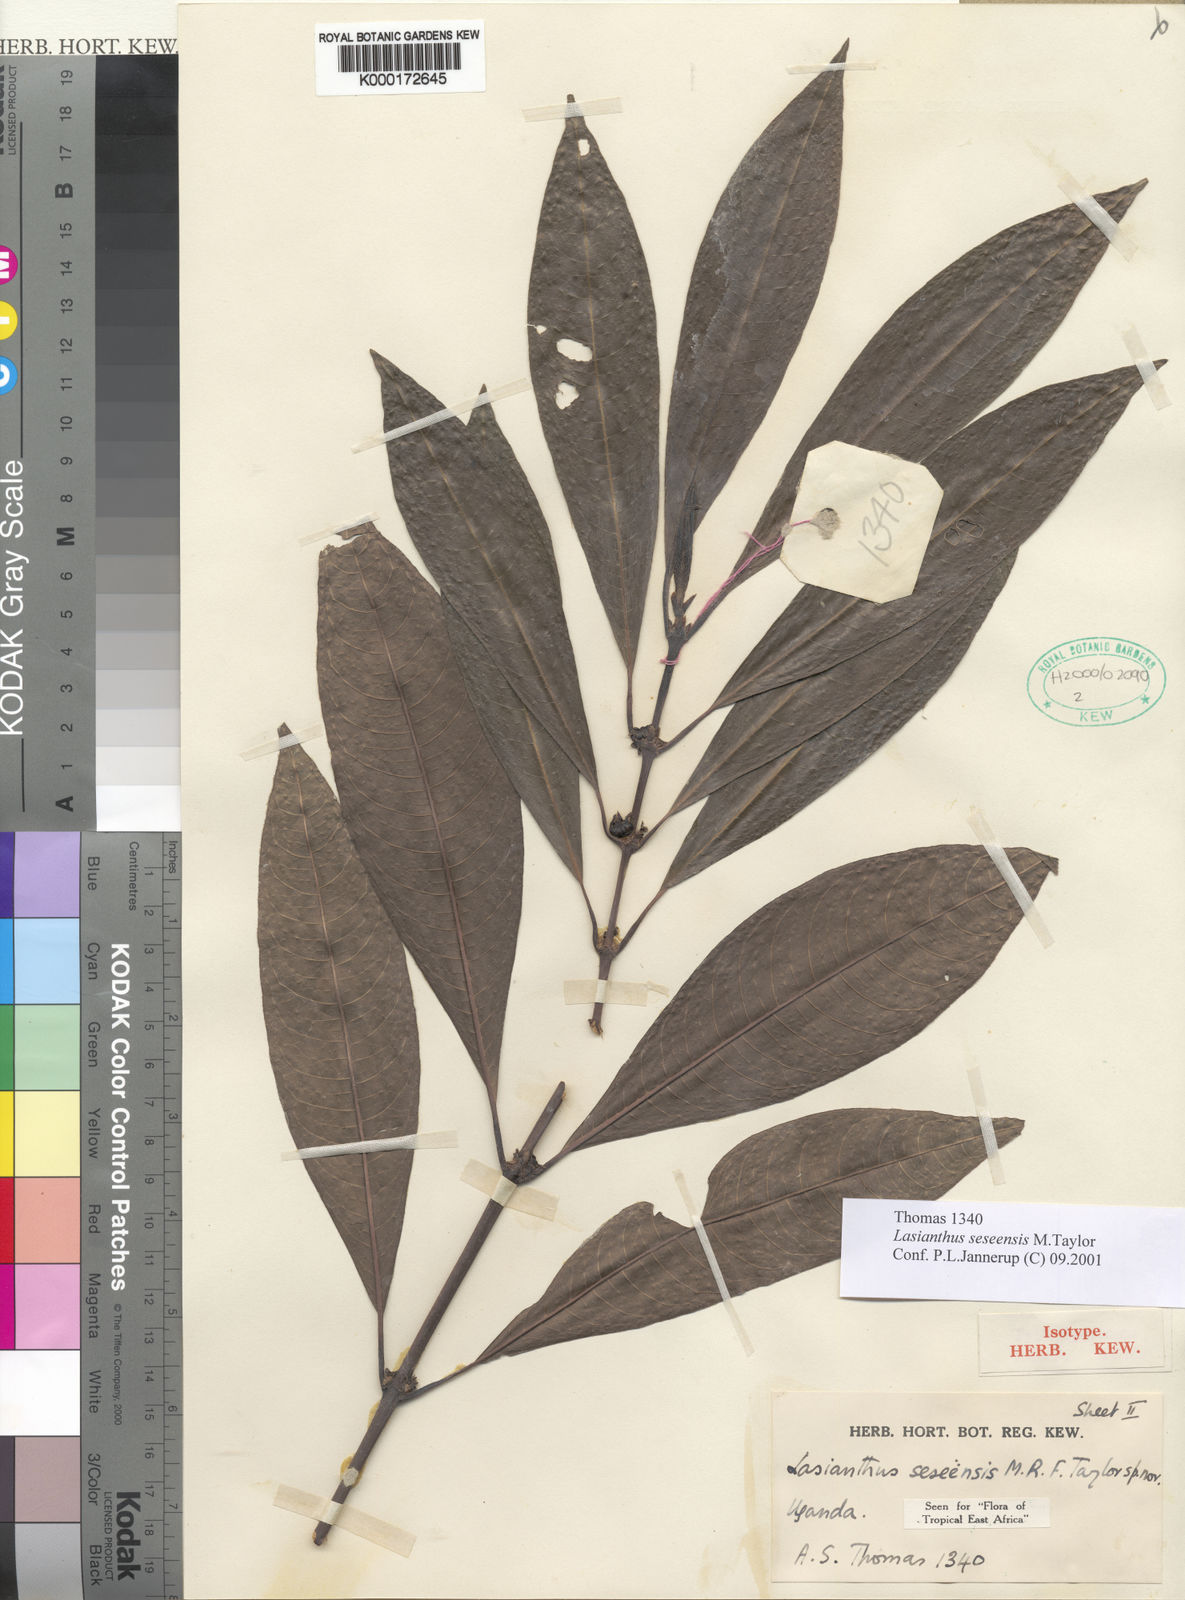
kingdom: Plantae
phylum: Tracheophyta
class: Magnoliopsida
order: Gentianales
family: Rubiaceae
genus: Lasianthus
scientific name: Lasianthus batangensis
